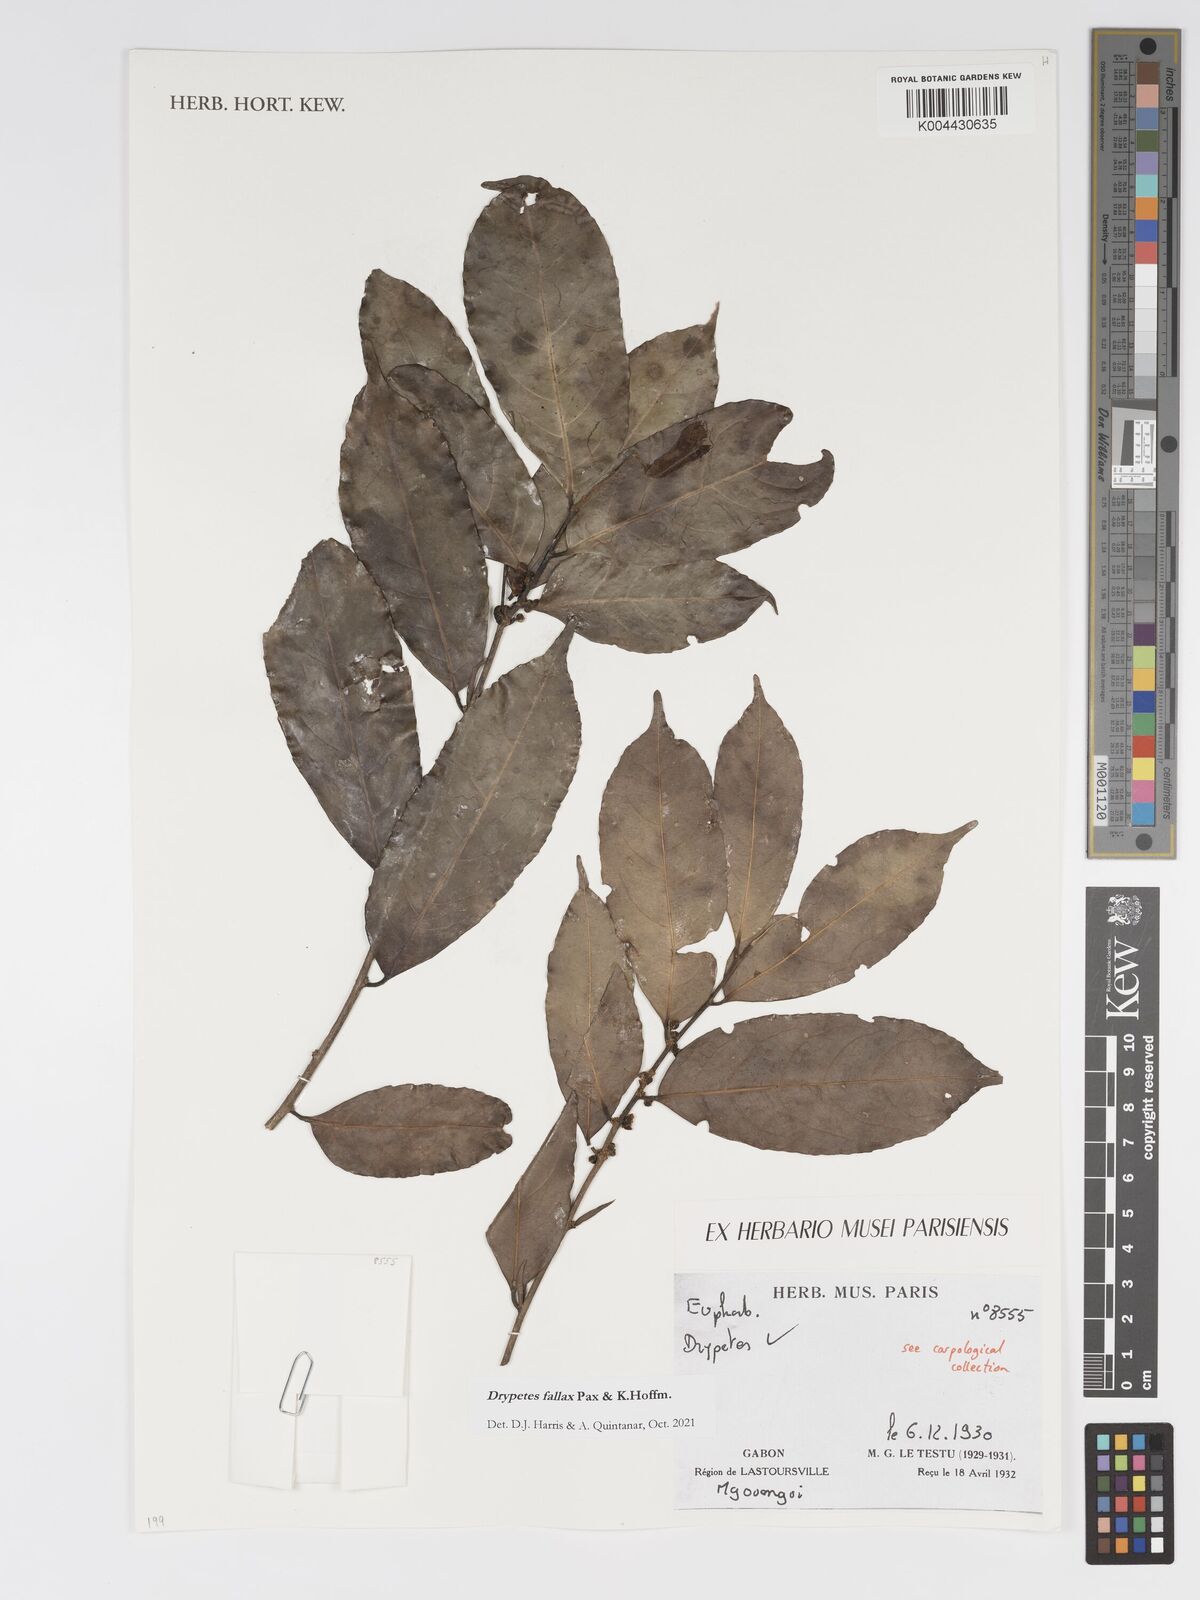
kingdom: Plantae
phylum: Tracheophyta
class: Magnoliopsida
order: Malpighiales
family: Putranjivaceae
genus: Drypetes
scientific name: Drypetes fallax
